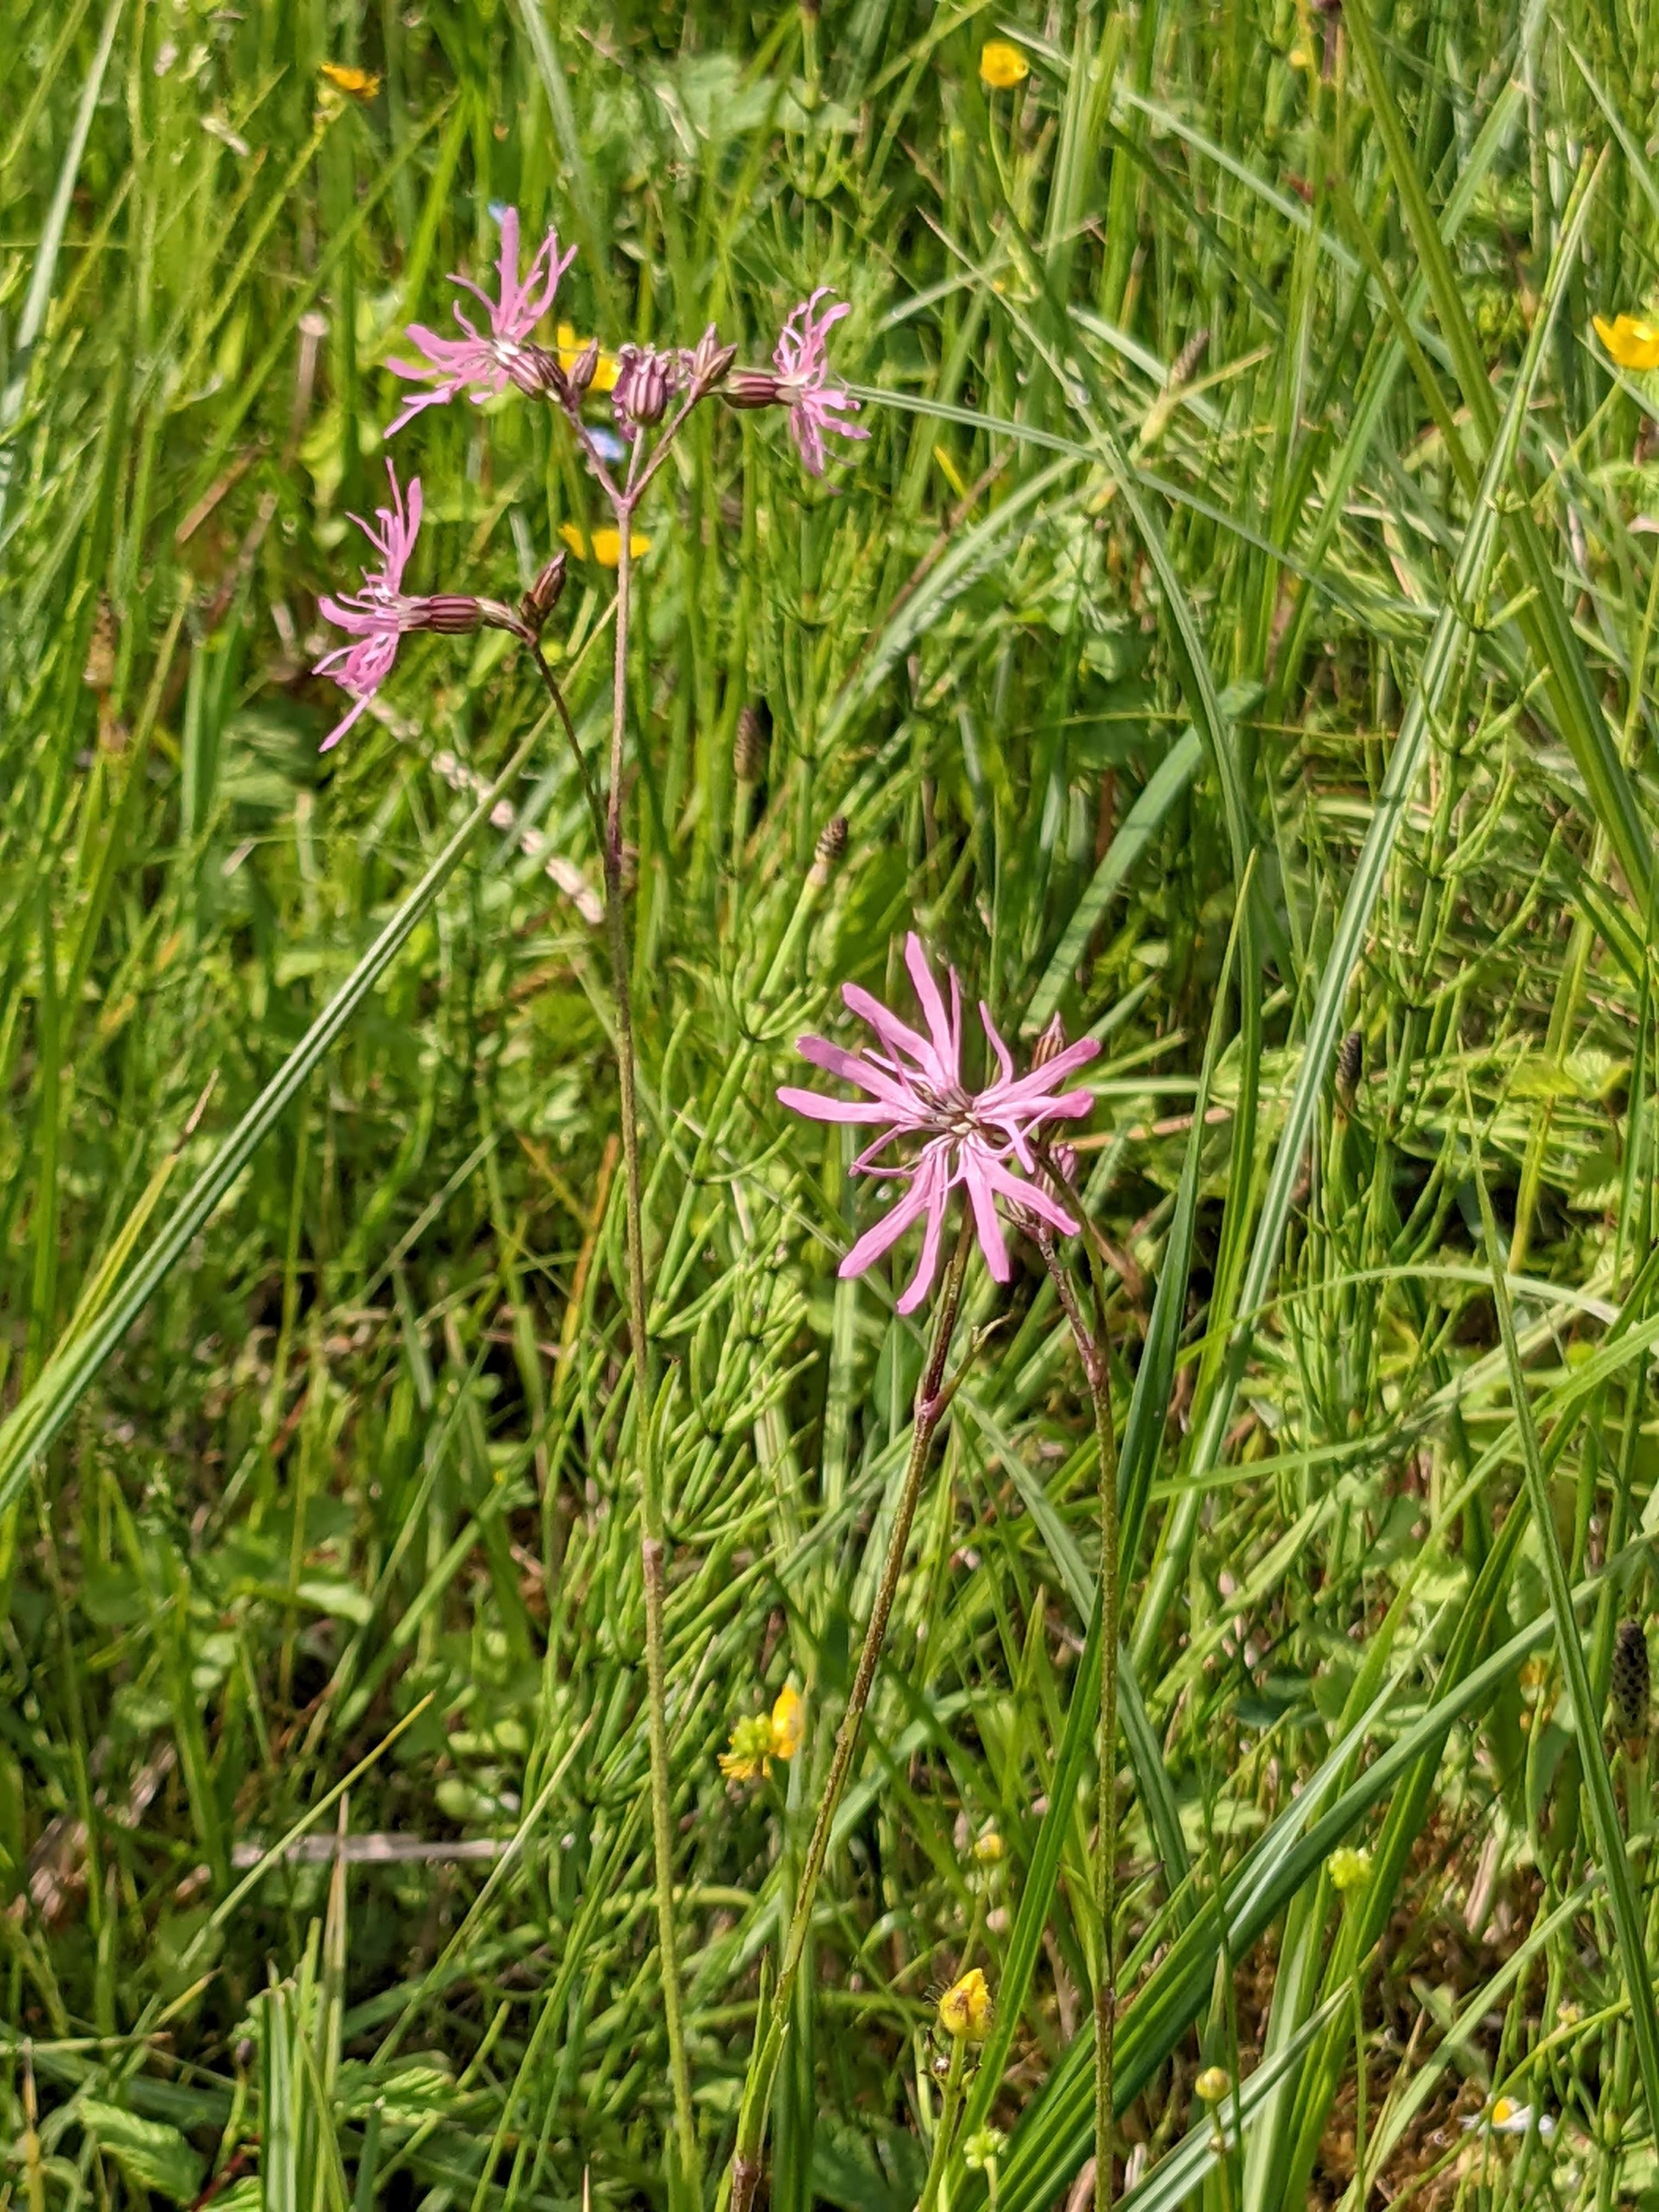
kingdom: Plantae
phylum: Tracheophyta
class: Magnoliopsida
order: Caryophyllales
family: Caryophyllaceae
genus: Silene
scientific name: Silene flos-cuculi
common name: Trævlekrone
